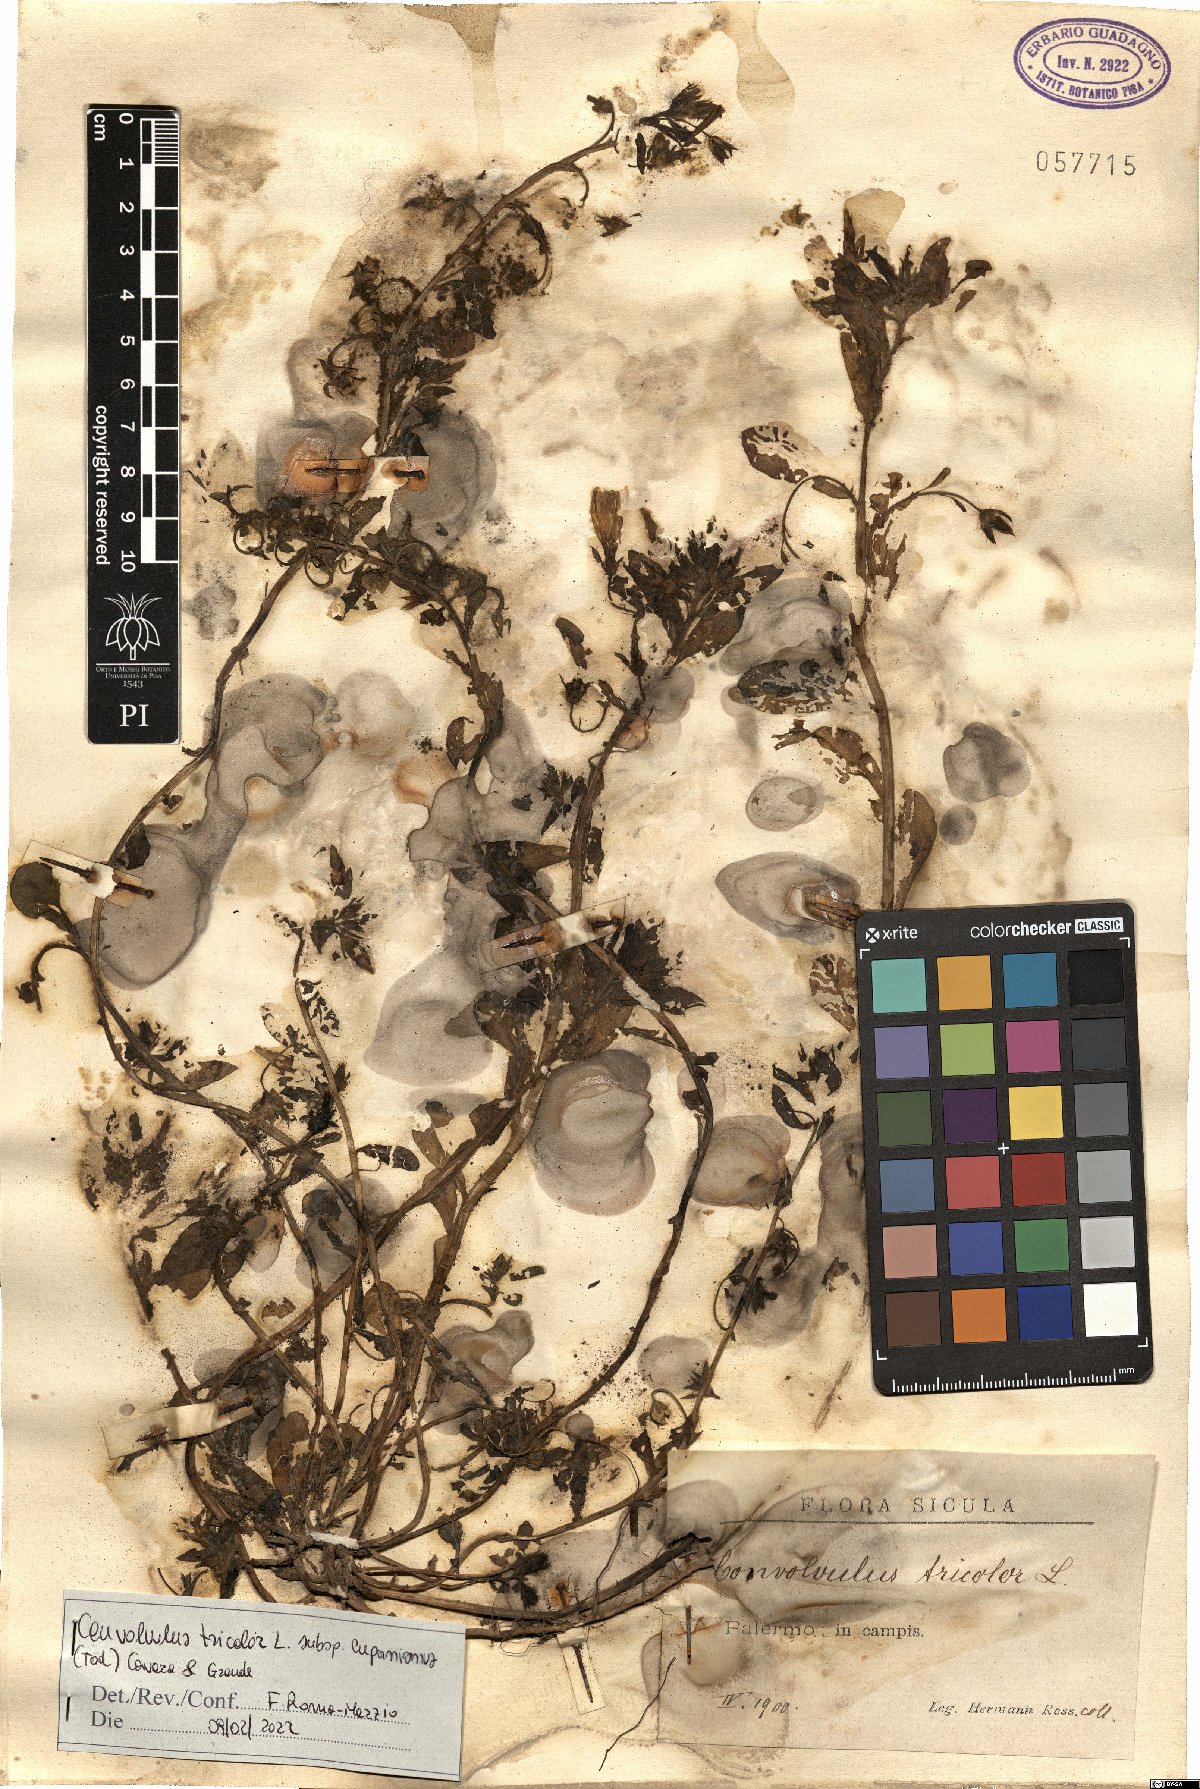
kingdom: Plantae
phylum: Tracheophyta
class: Magnoliopsida
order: Solanales
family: Convolvulaceae
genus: Convolvulus
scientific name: Convolvulus tricolor
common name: Dwarf morning-glory
